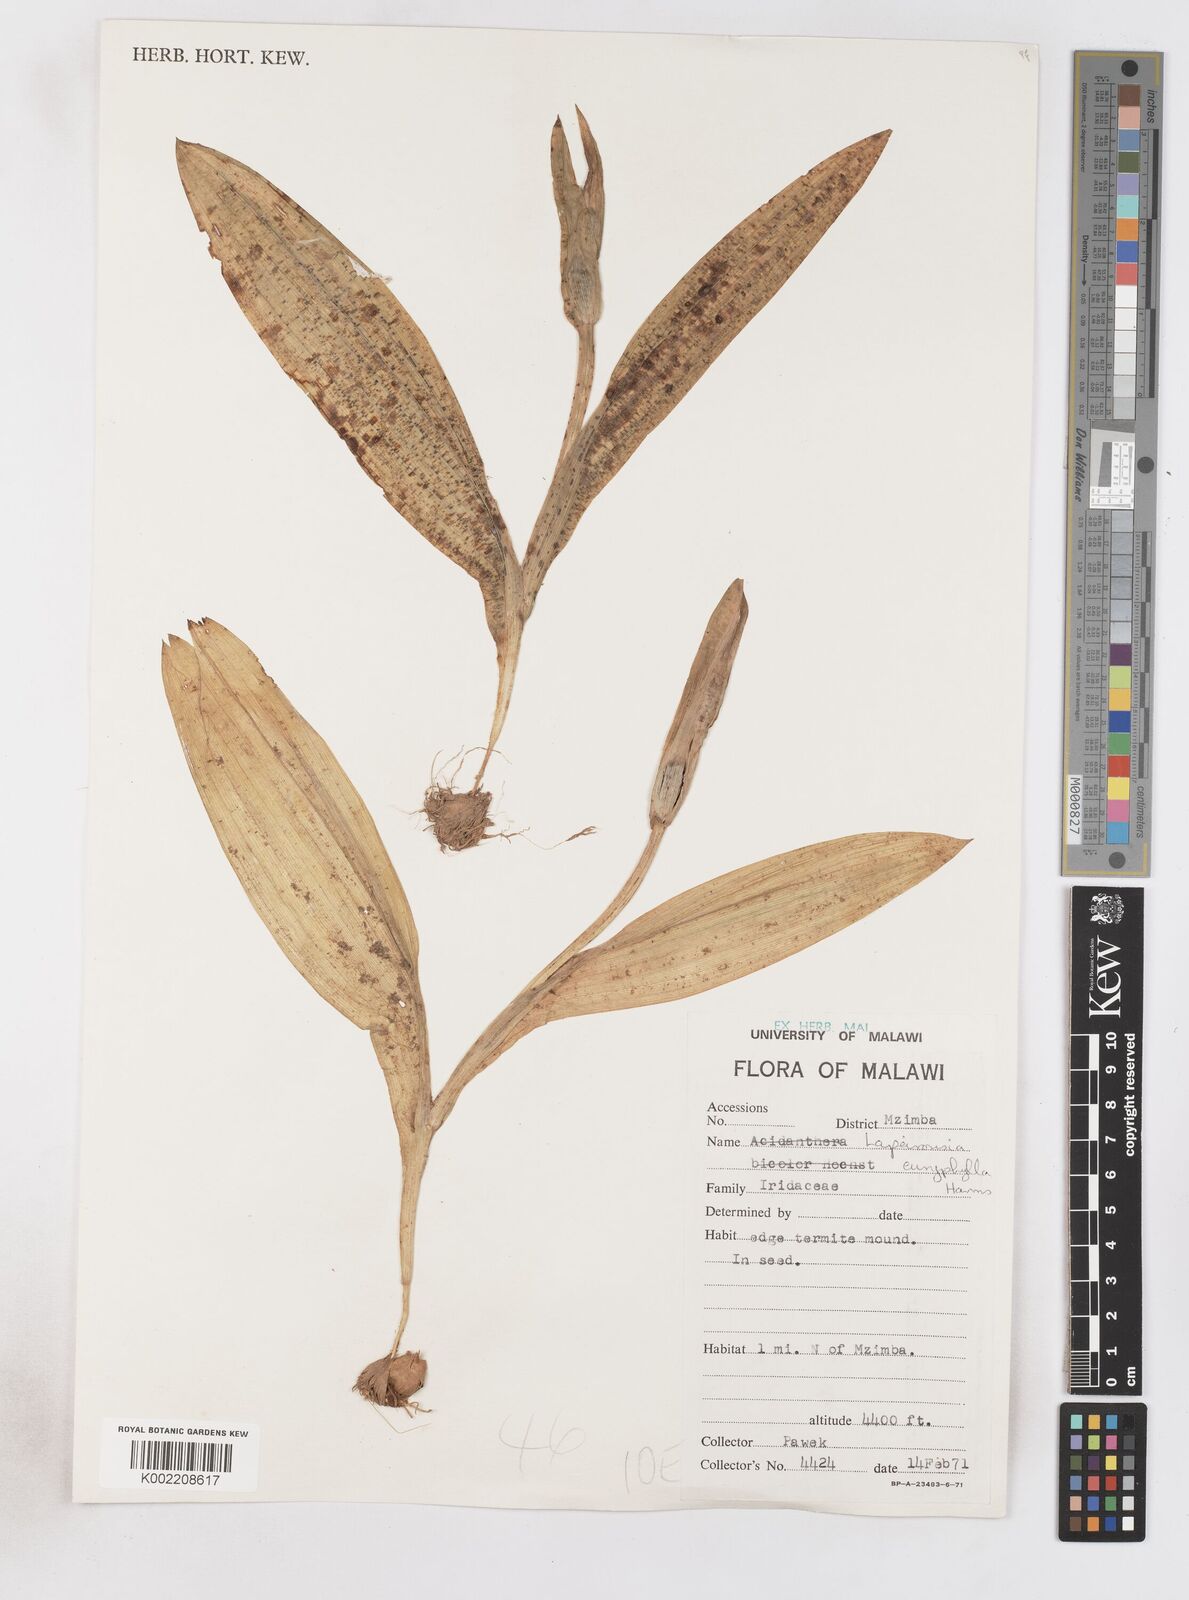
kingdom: Plantae
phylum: Tracheophyta
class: Liliopsida
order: Asparagales
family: Iridaceae
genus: Savannosiphon
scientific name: Savannosiphon euryphylla
